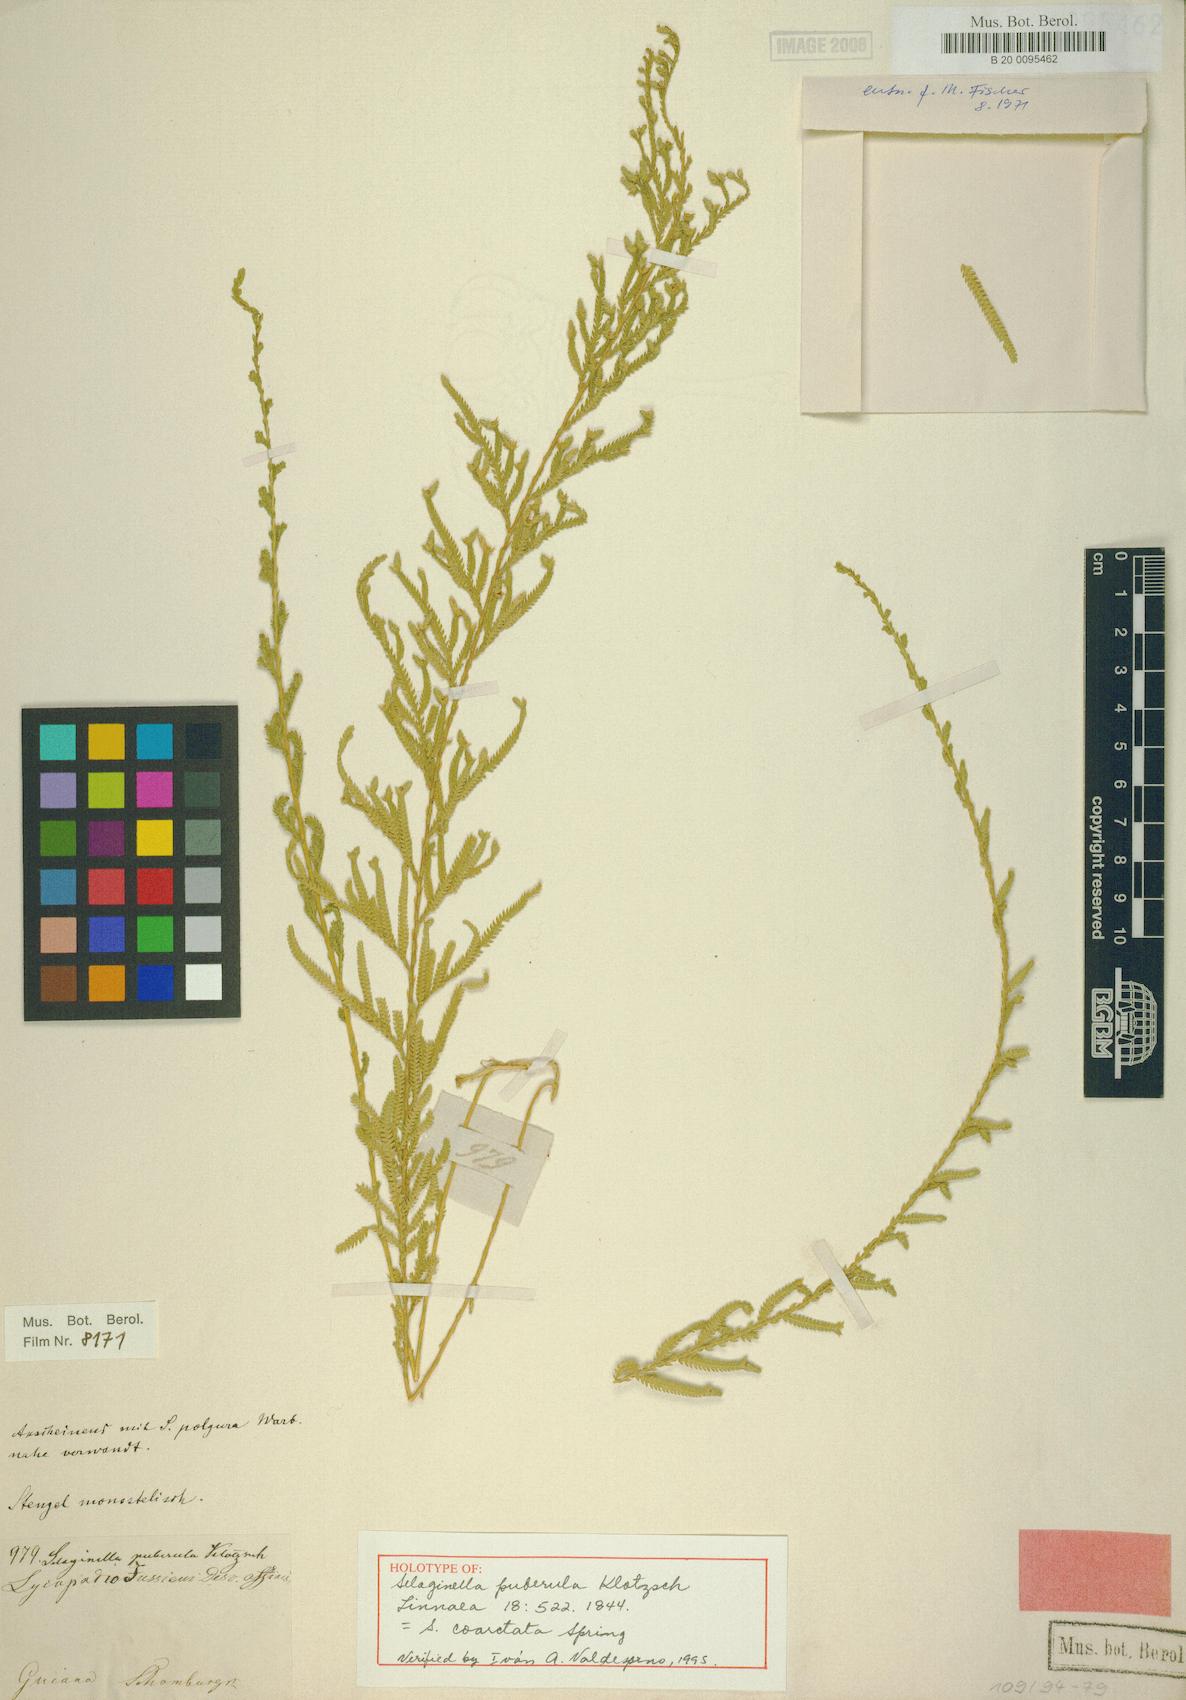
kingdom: Plantae
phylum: Tracheophyta
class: Lycopodiopsida
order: Selaginellales
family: Selaginellaceae
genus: Selaginella
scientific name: Selaginella coarctata
